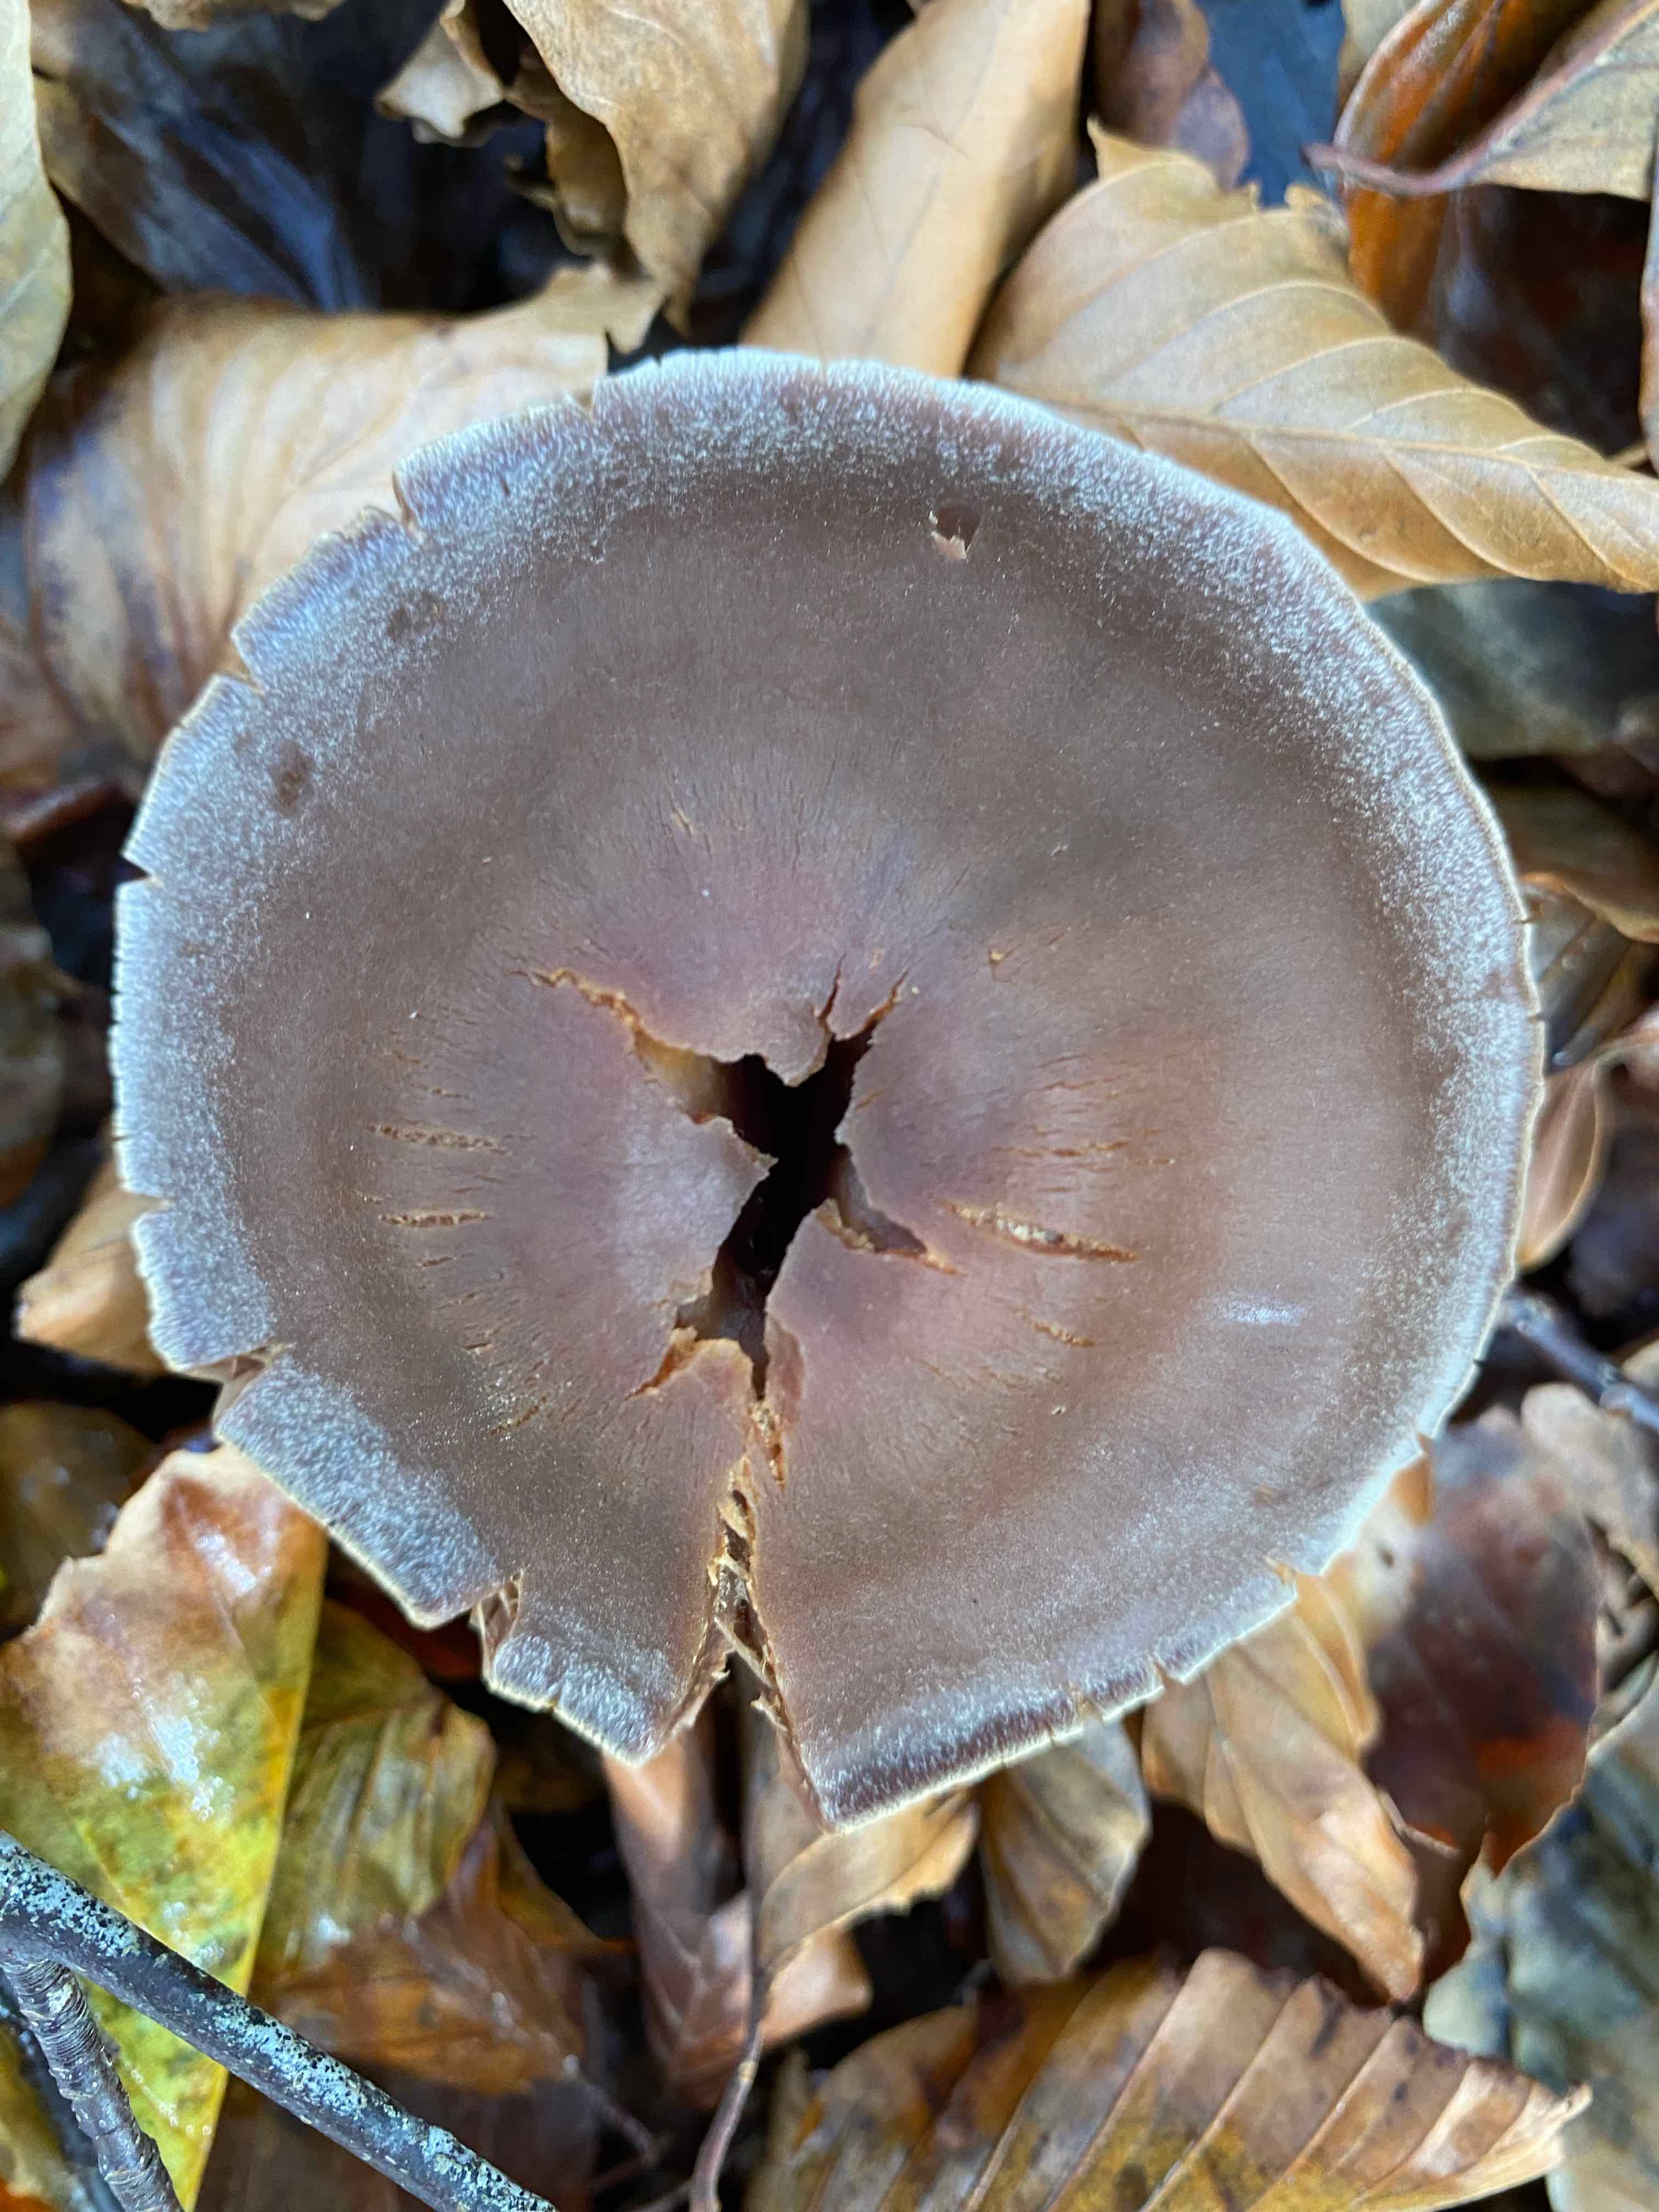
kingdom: Fungi
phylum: Basidiomycota
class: Agaricomycetes
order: Agaricales
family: Cortinariaceae
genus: Cortinarius
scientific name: Cortinarius
